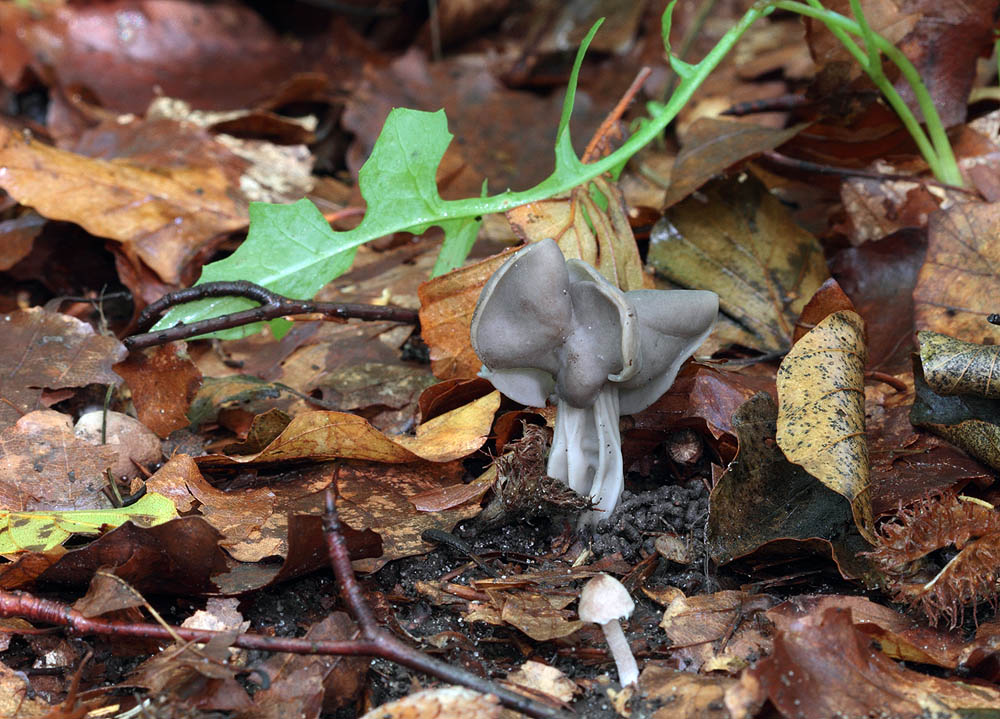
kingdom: Fungi
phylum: Ascomycota
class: Pezizomycetes
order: Pezizales
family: Helvellaceae
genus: Helvella
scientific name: Helvella lacunosa
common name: grubet foldhat
